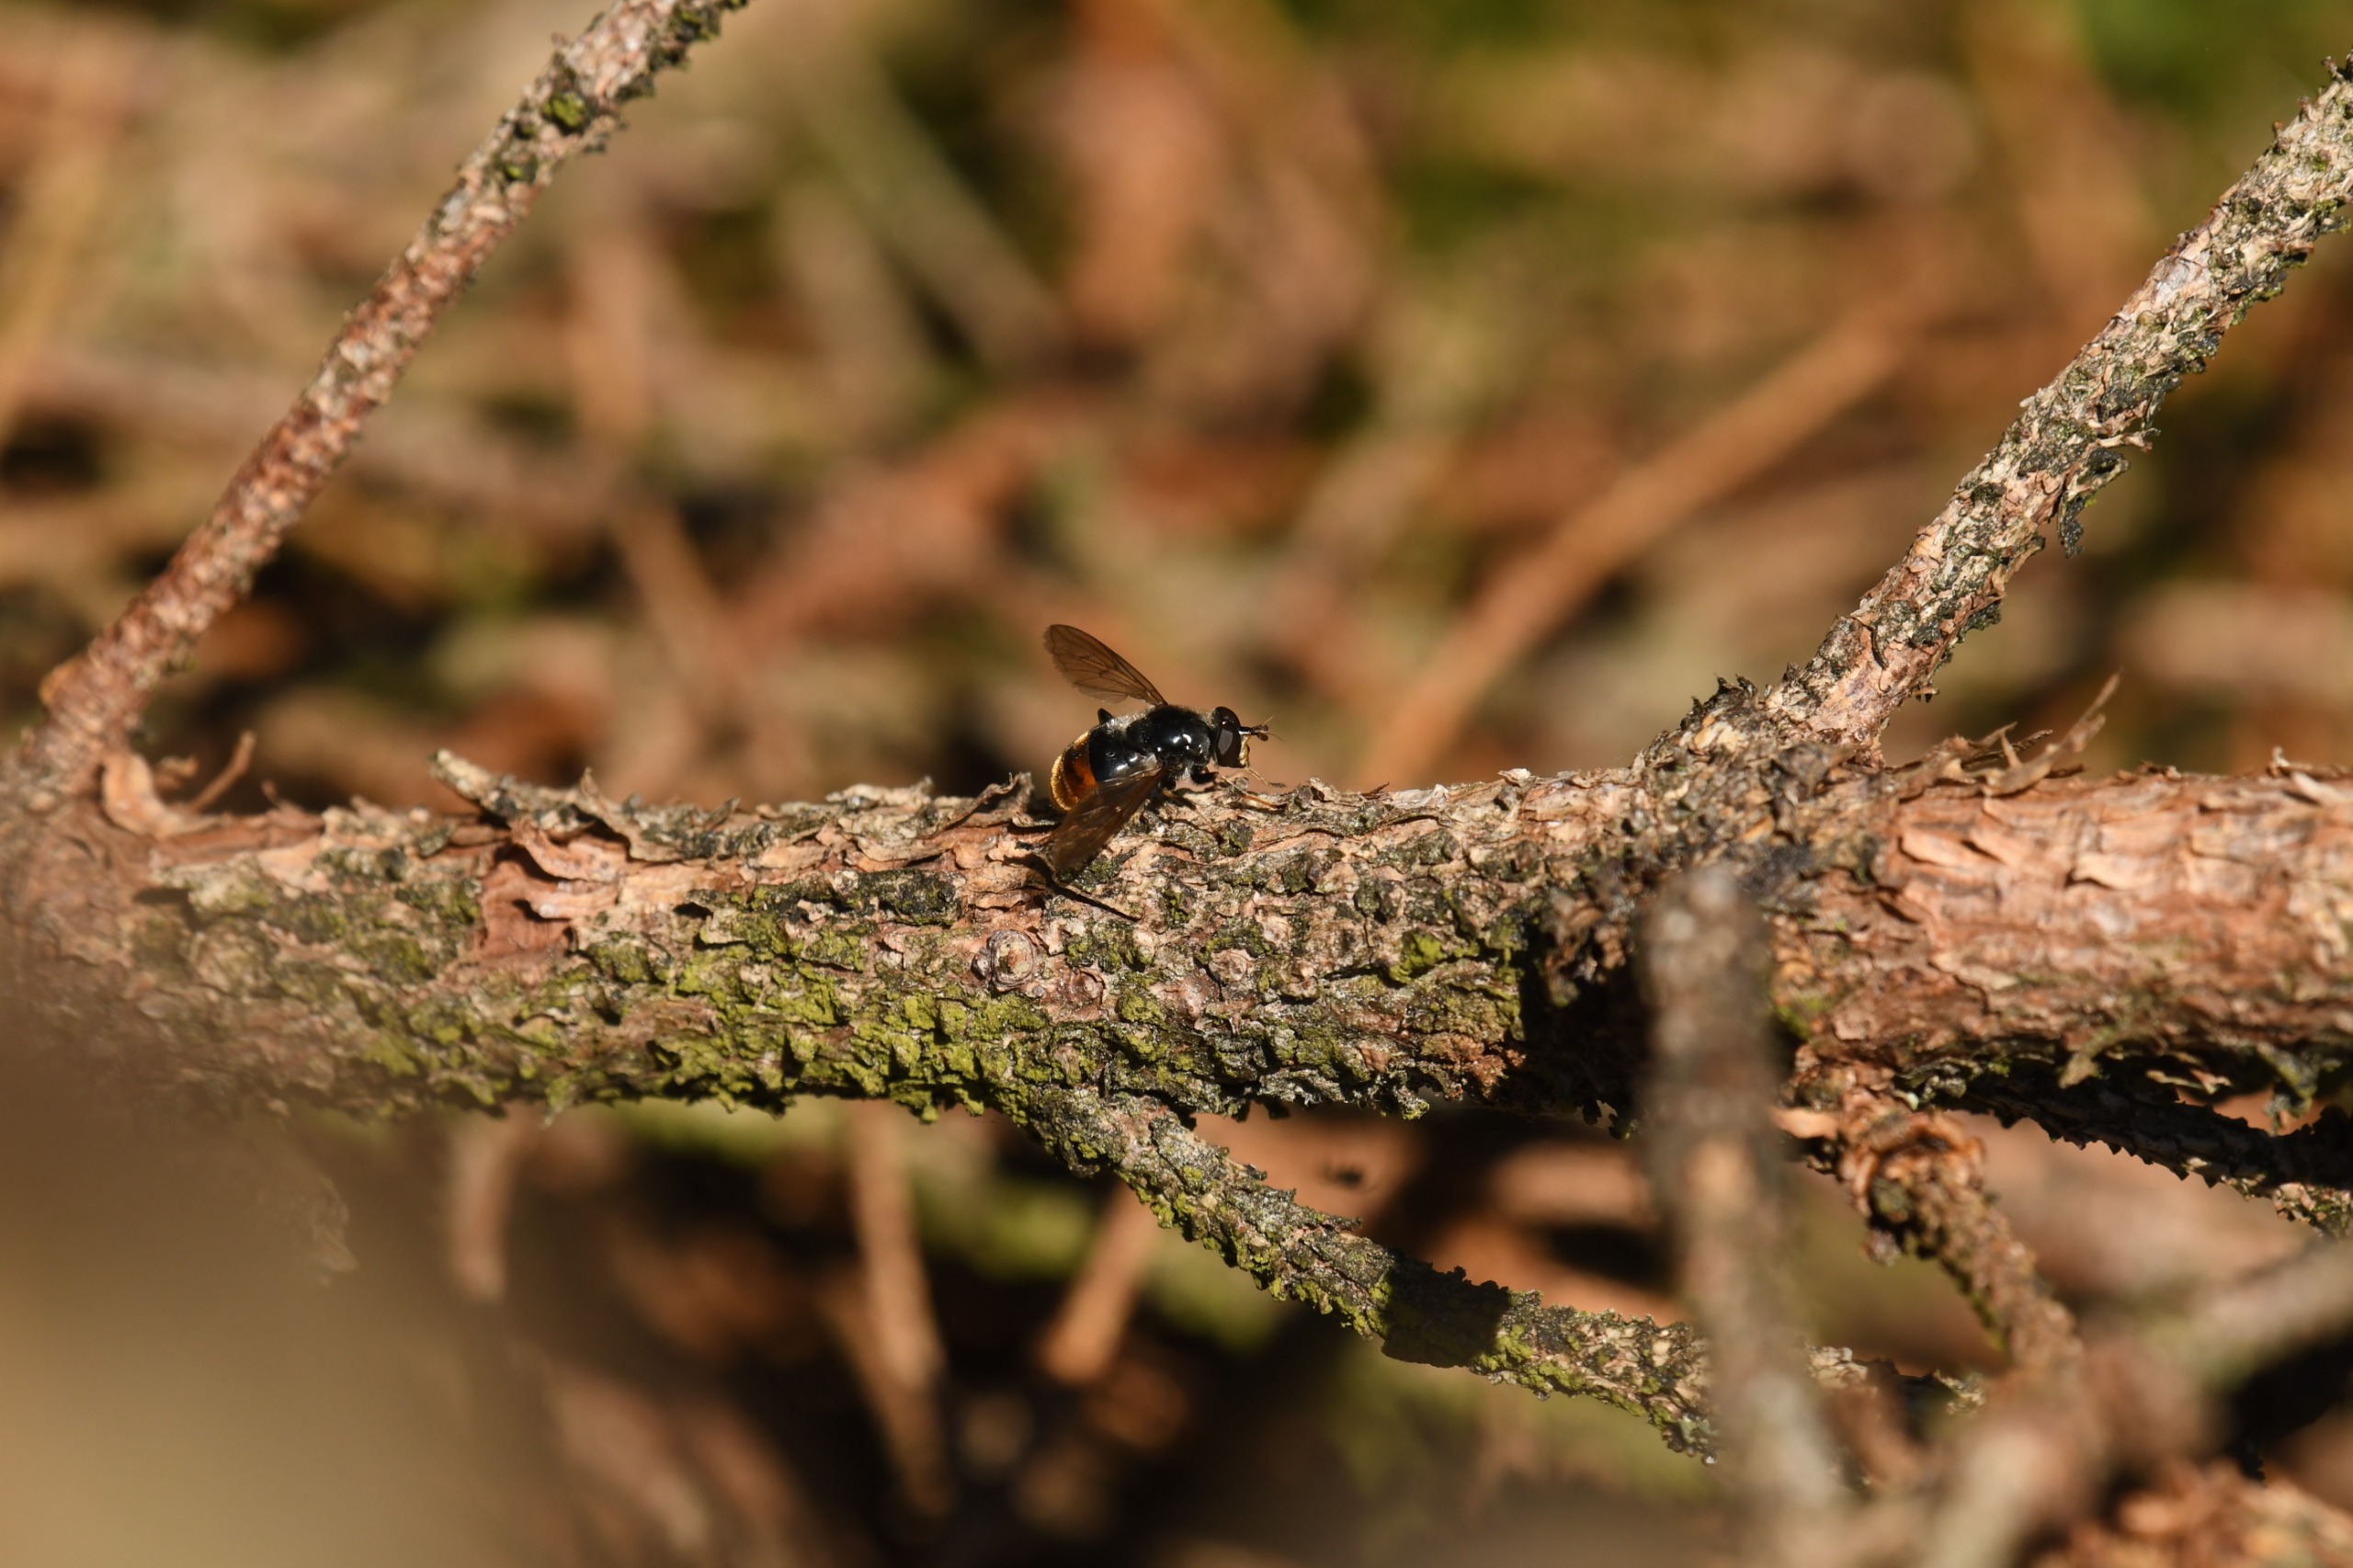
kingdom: Animalia
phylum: Arthropoda
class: Insecta
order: Diptera
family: Syrphidae
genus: Blera
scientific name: Blera fallax
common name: Stub-svirreflue
